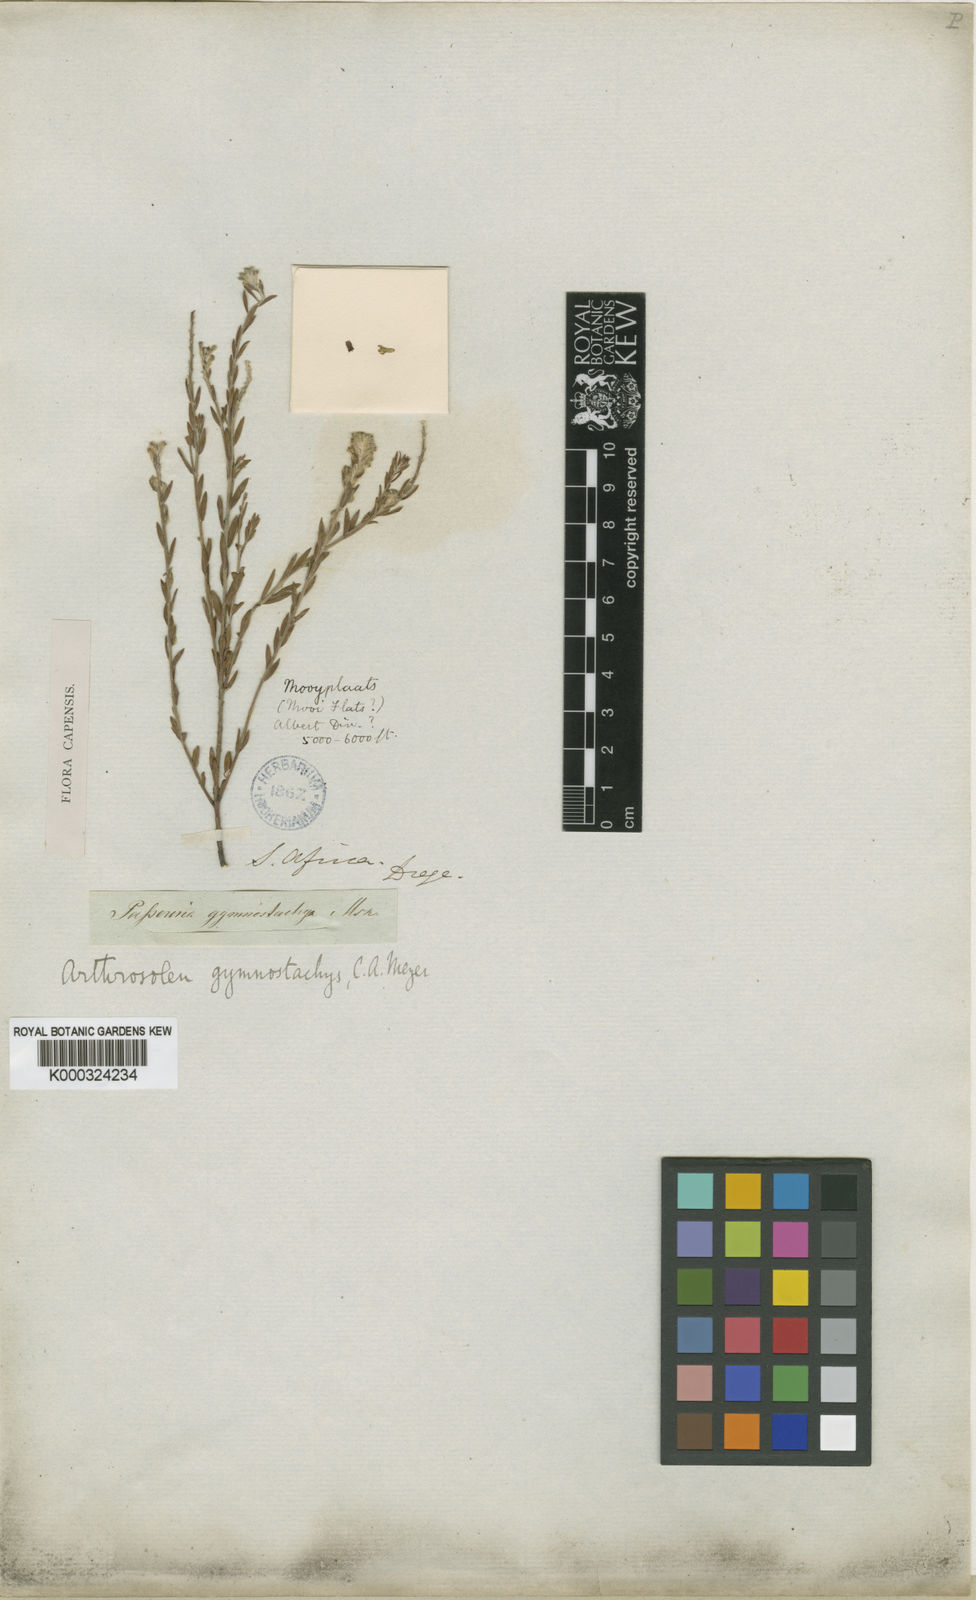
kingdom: Plantae
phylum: Tracheophyta
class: Magnoliopsida
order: Malvales
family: Thymelaeaceae
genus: Gnidia
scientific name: Gnidia gymnostachya
